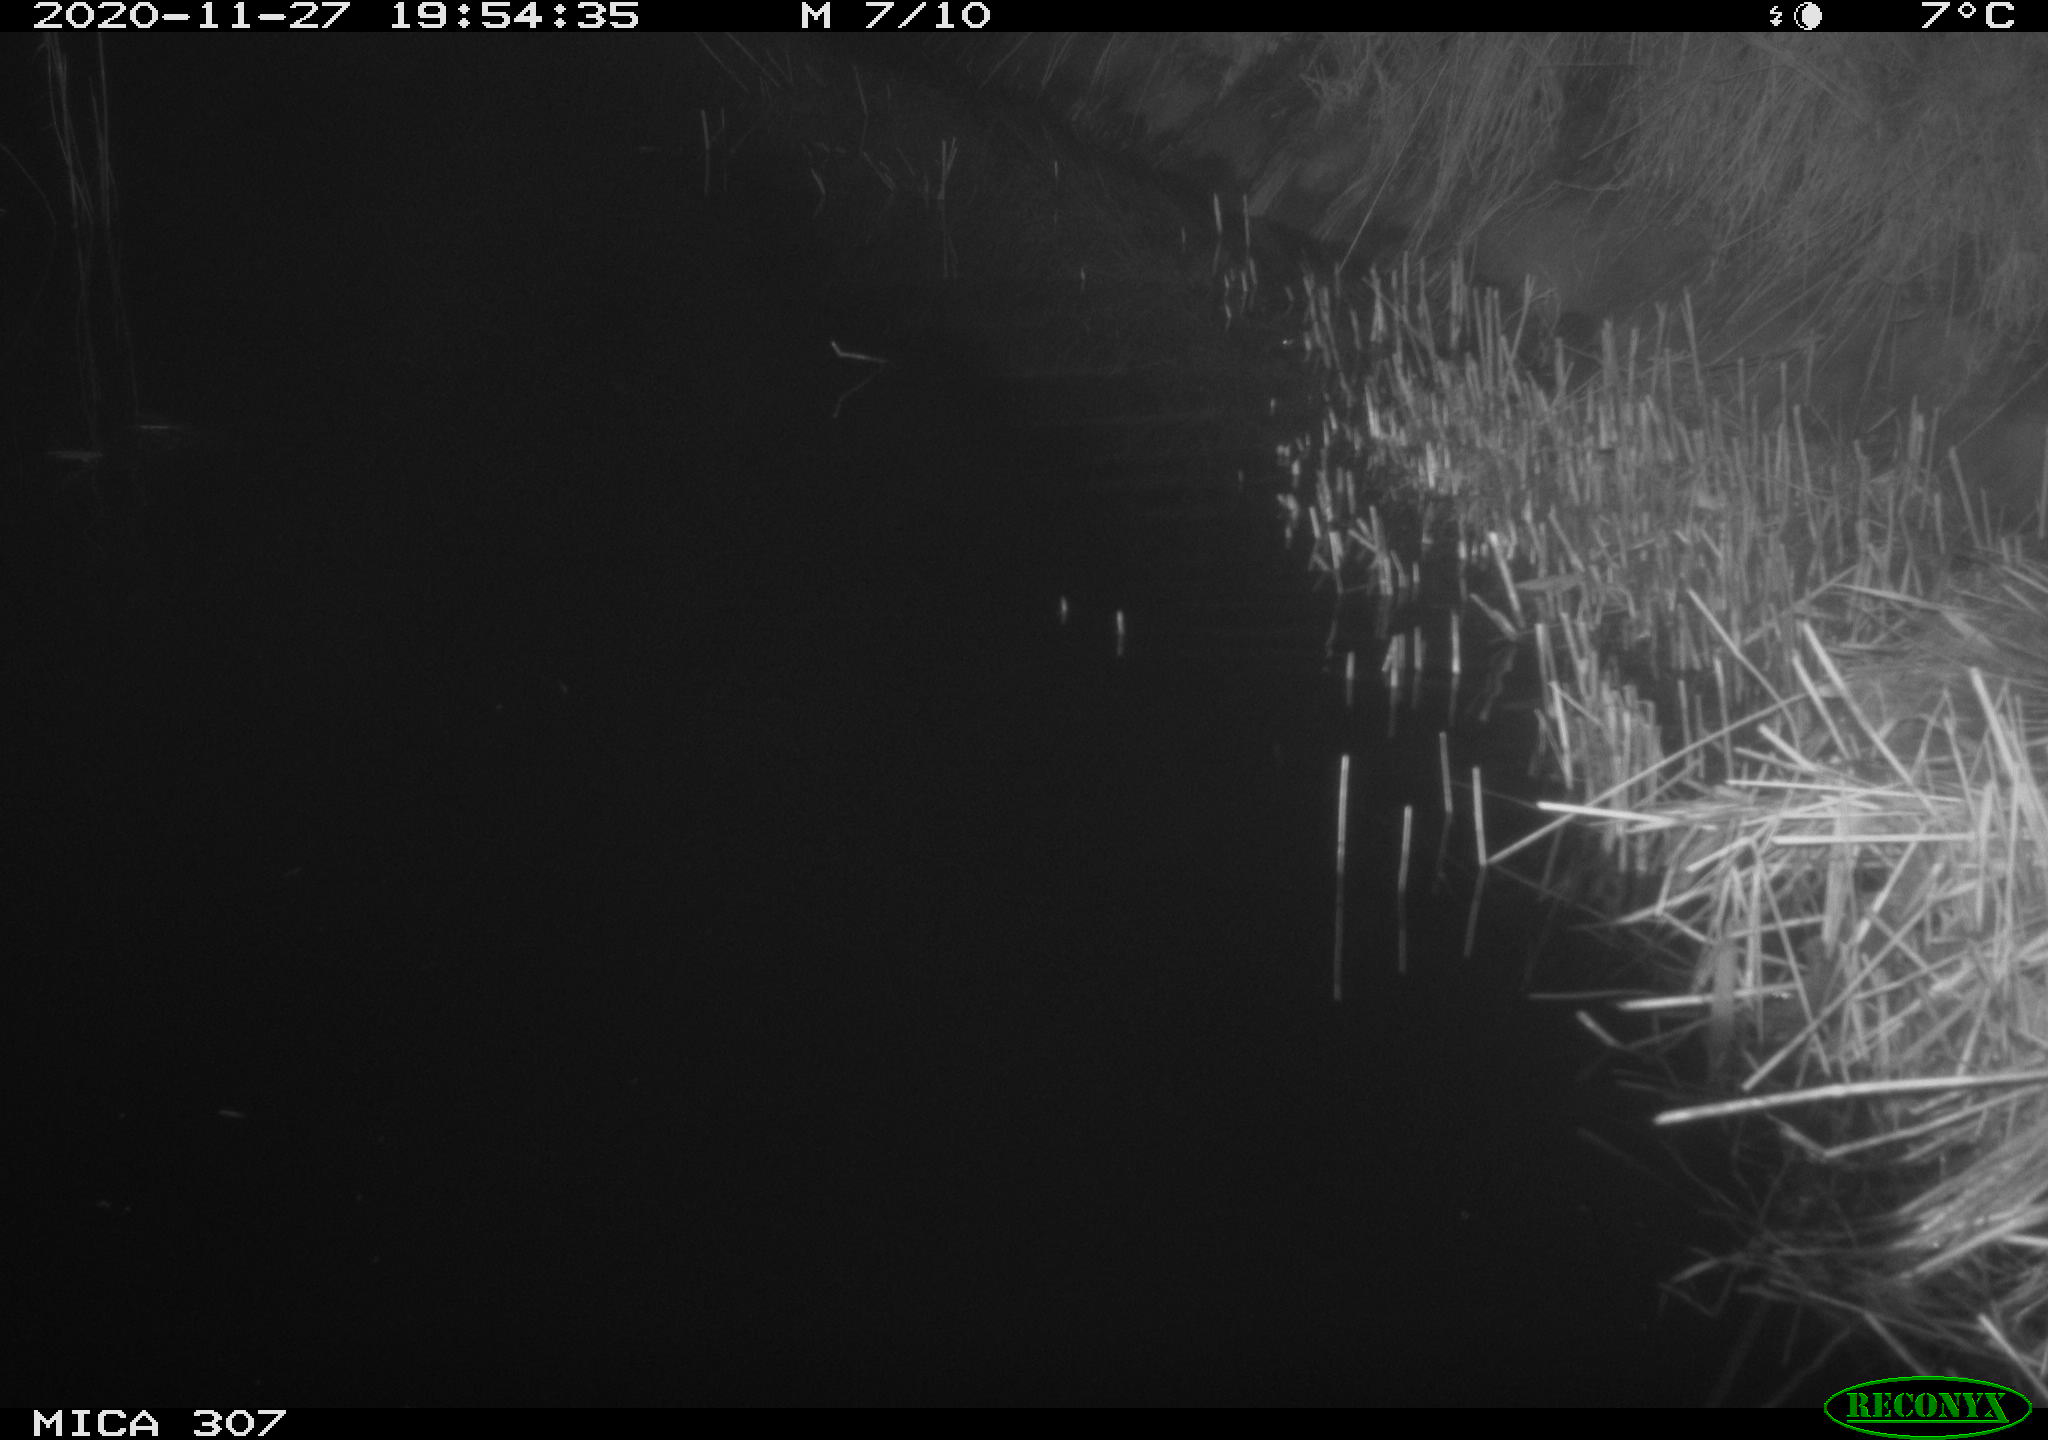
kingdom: Animalia
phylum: Chordata
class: Mammalia
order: Rodentia
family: Muridae
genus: Rattus
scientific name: Rattus norvegicus
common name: Brown rat
